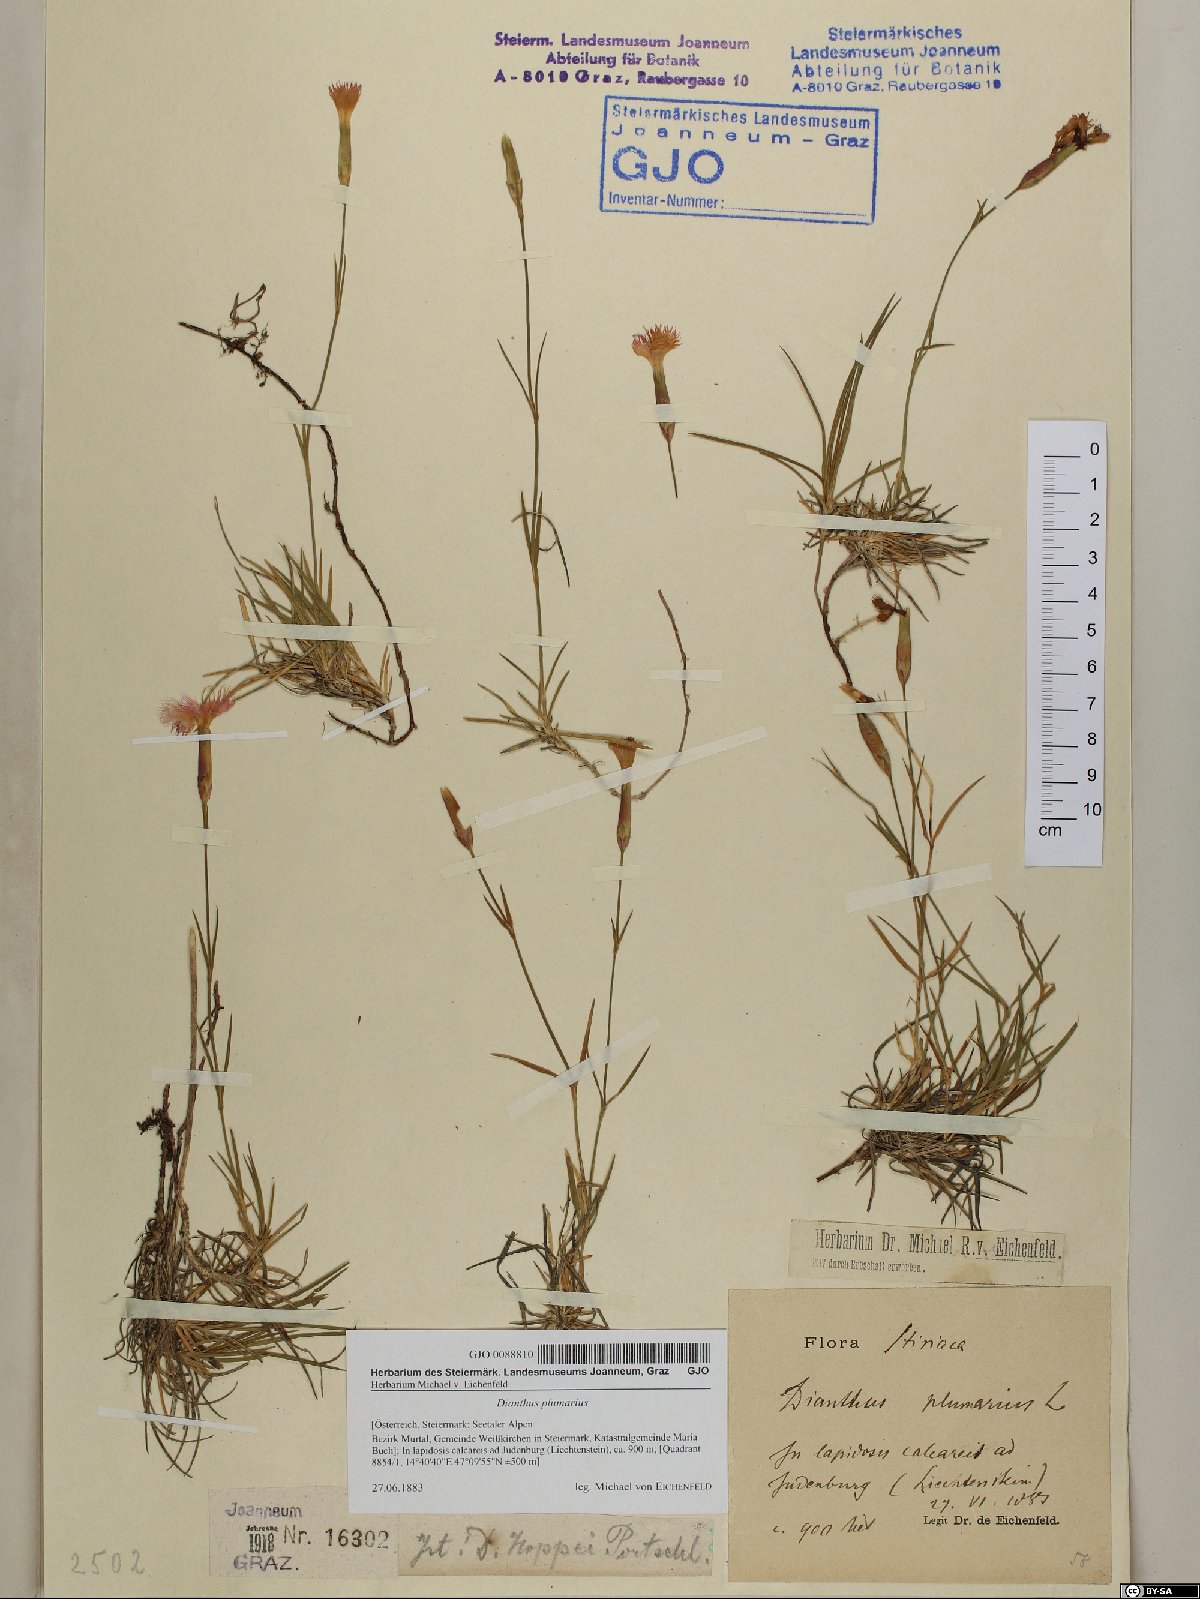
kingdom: Plantae
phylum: Tracheophyta
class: Magnoliopsida
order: Caryophyllales
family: Caryophyllaceae
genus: Dianthus
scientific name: Dianthus plumarius
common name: Pink
